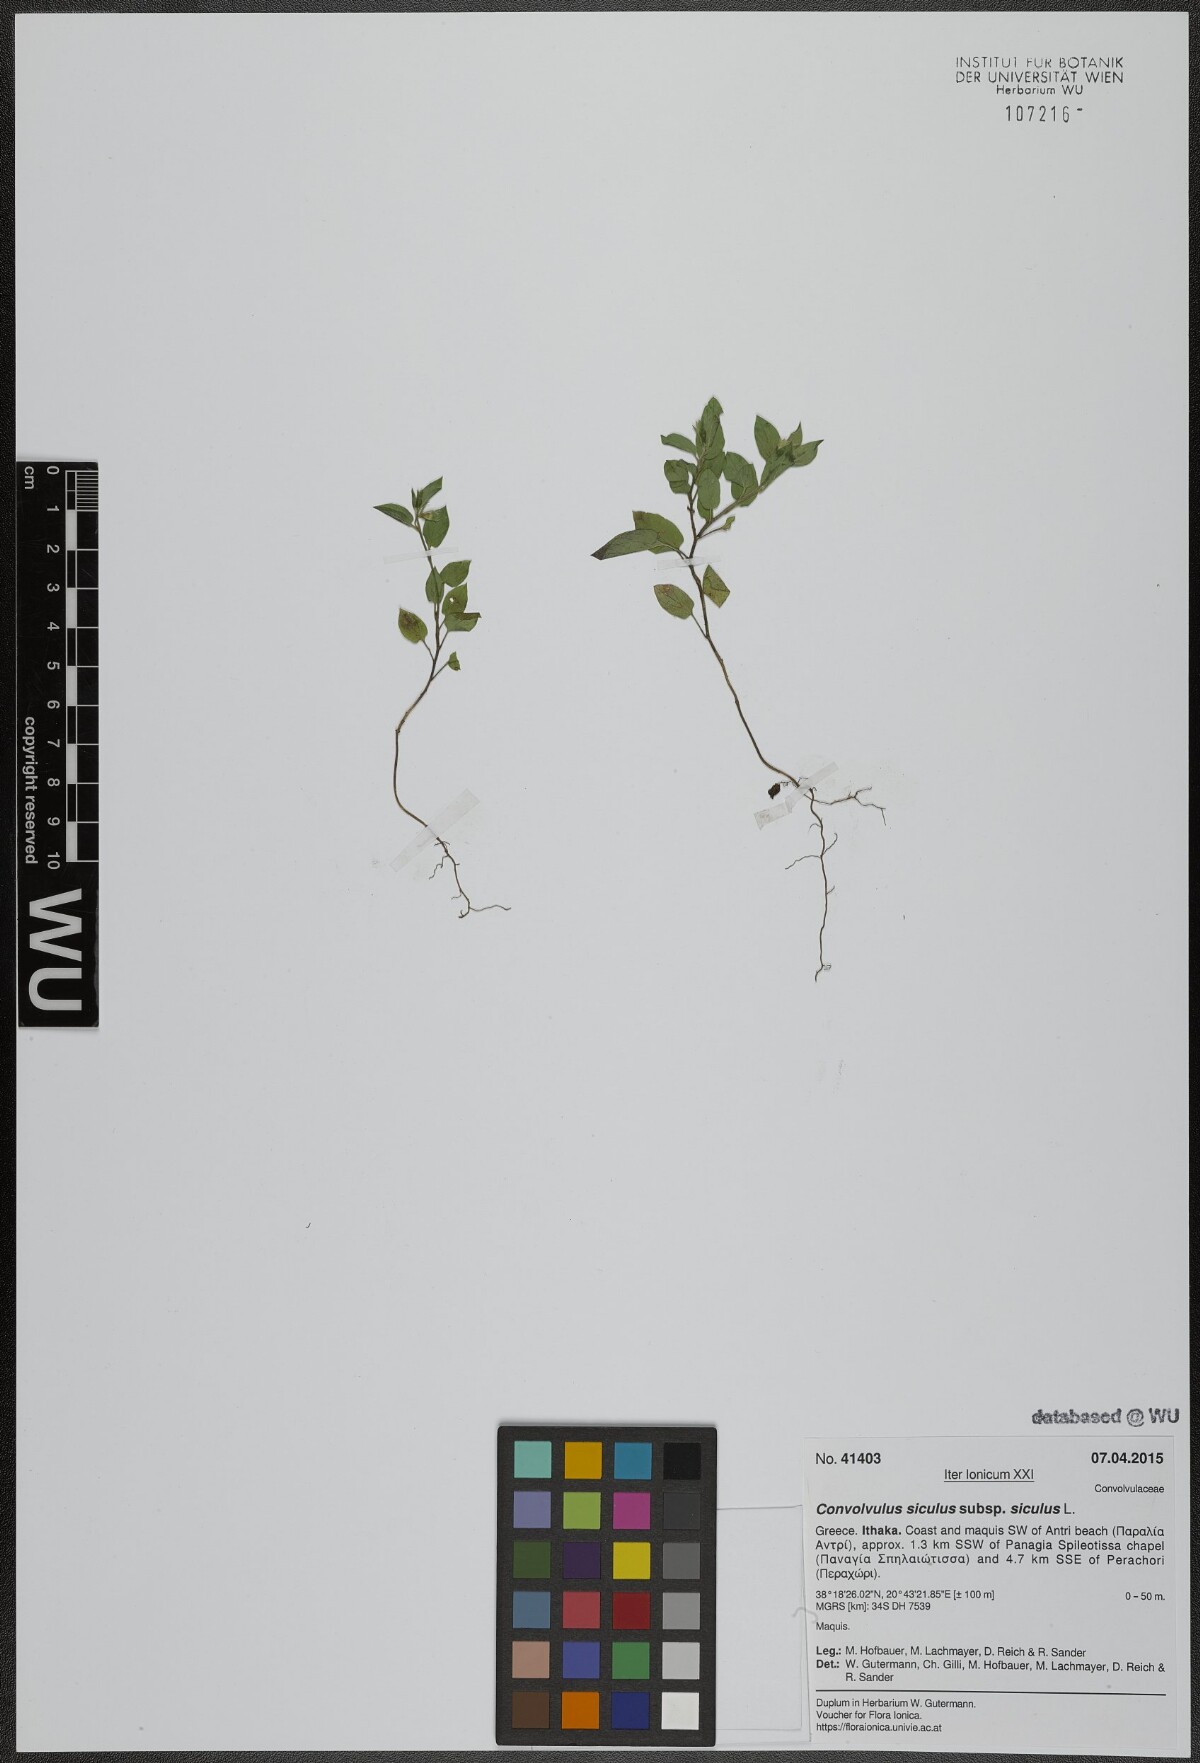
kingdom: Plantae
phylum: Tracheophyta
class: Magnoliopsida
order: Solanales
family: Convolvulaceae
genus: Convolvulus
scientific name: Convolvulus siculus
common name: Small blue-convolvulus
